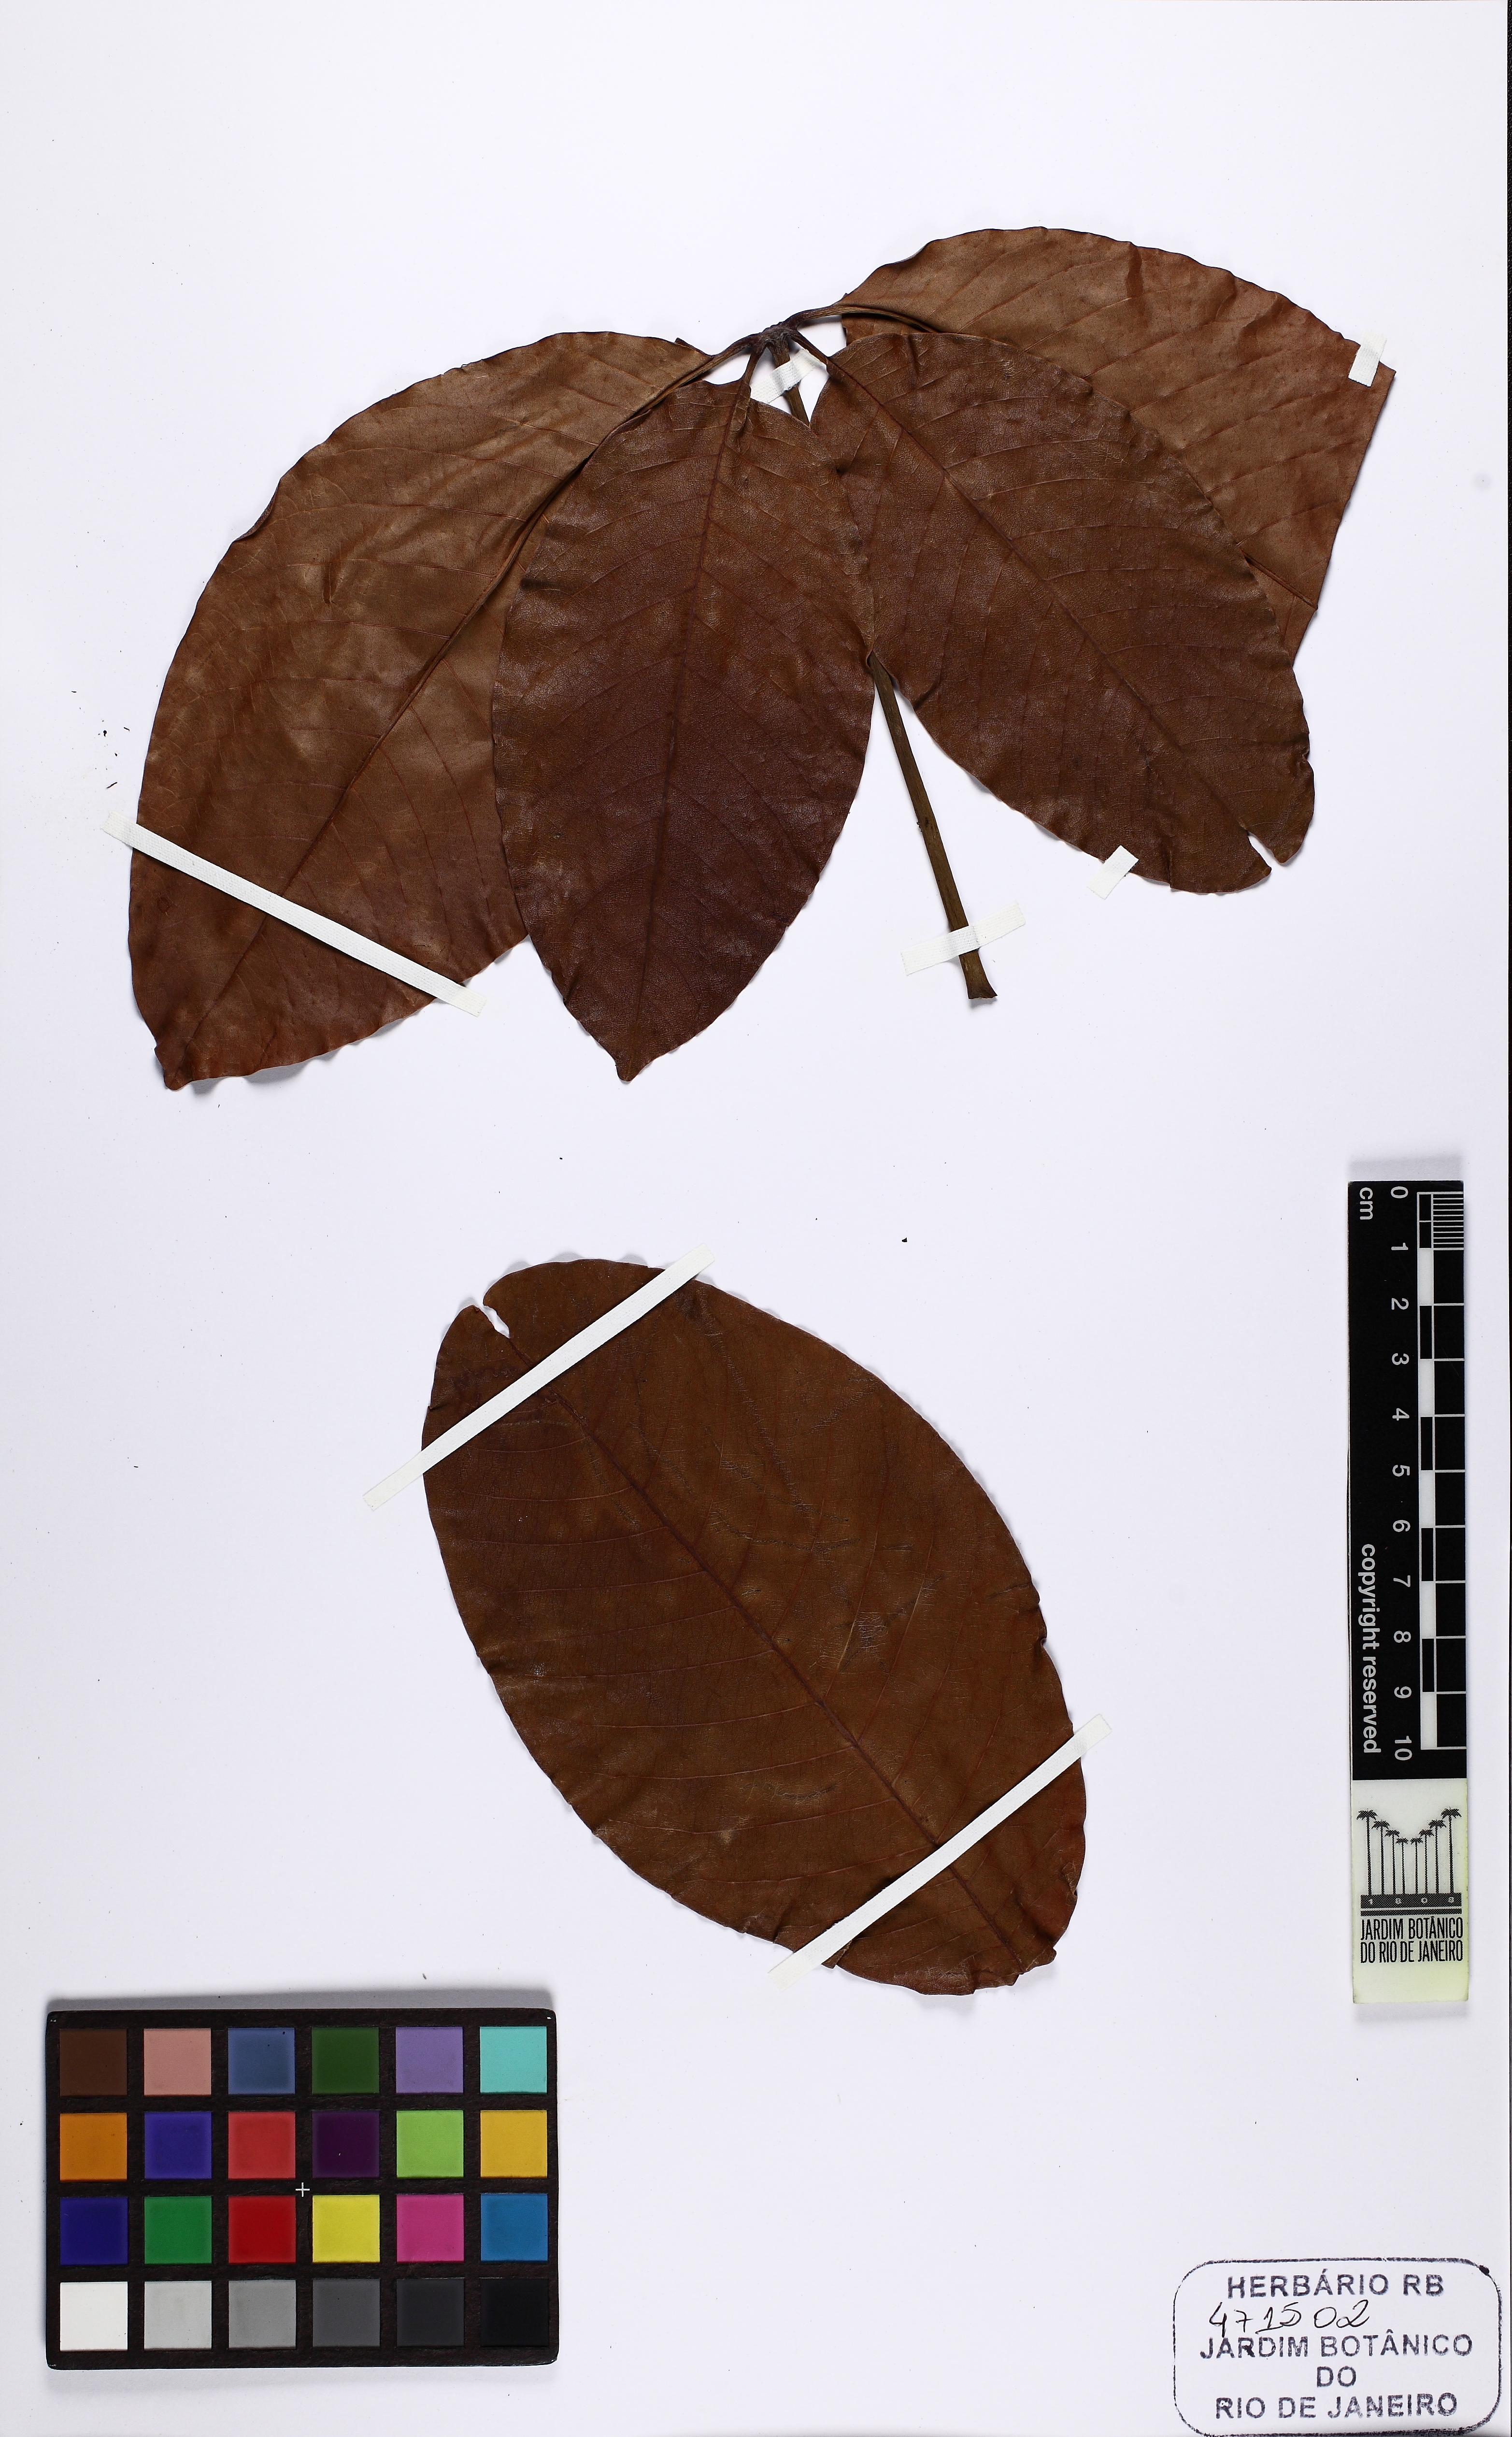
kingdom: Plantae
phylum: Tracheophyta
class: Magnoliopsida
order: Malvales
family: Malvaceae
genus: Pseudobombax
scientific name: Pseudobombax petropolitanum
